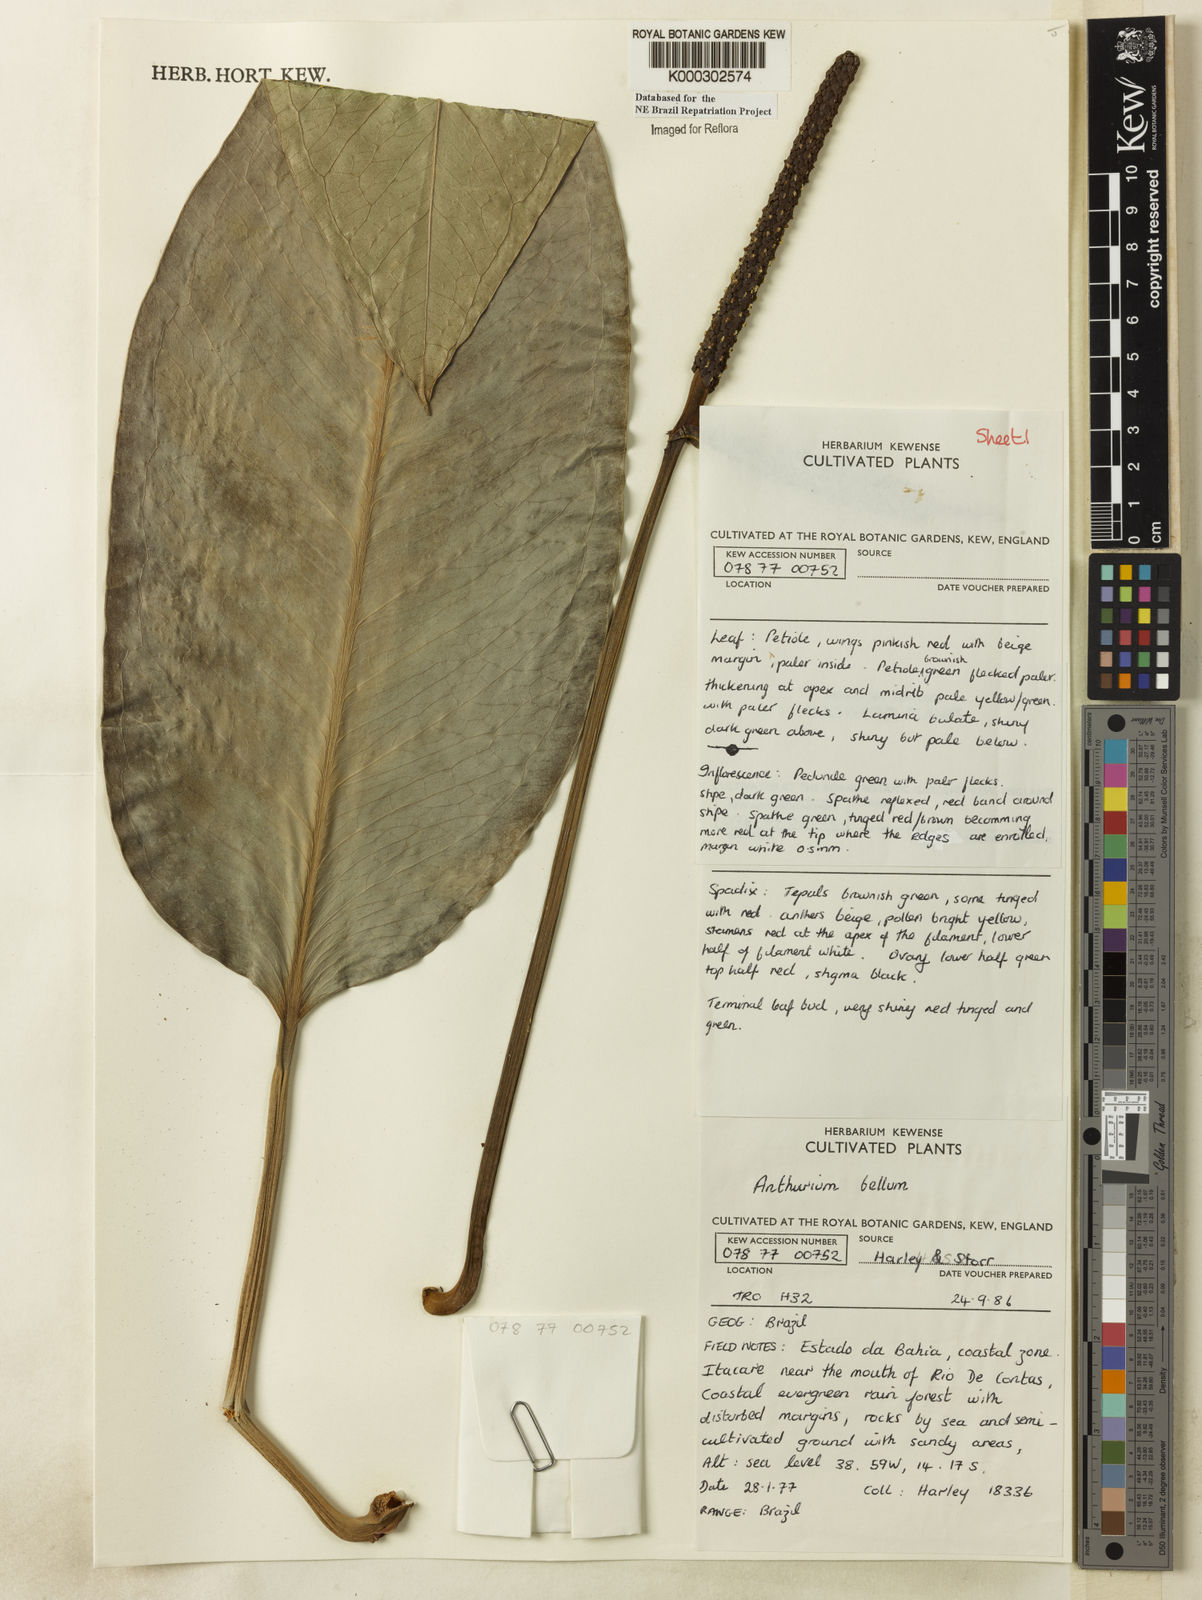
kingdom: Plantae
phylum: Tracheophyta
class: Liliopsida
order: Alismatales
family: Araceae
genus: Anthurium
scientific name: Anthurium bellum
